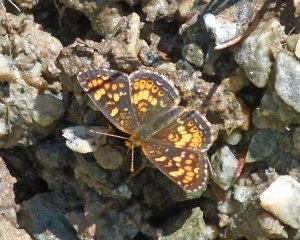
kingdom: Animalia
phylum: Arthropoda
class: Insecta
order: Lepidoptera
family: Nymphalidae
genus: Phyciodes
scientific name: Phyciodes tharos
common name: Field Crescent
